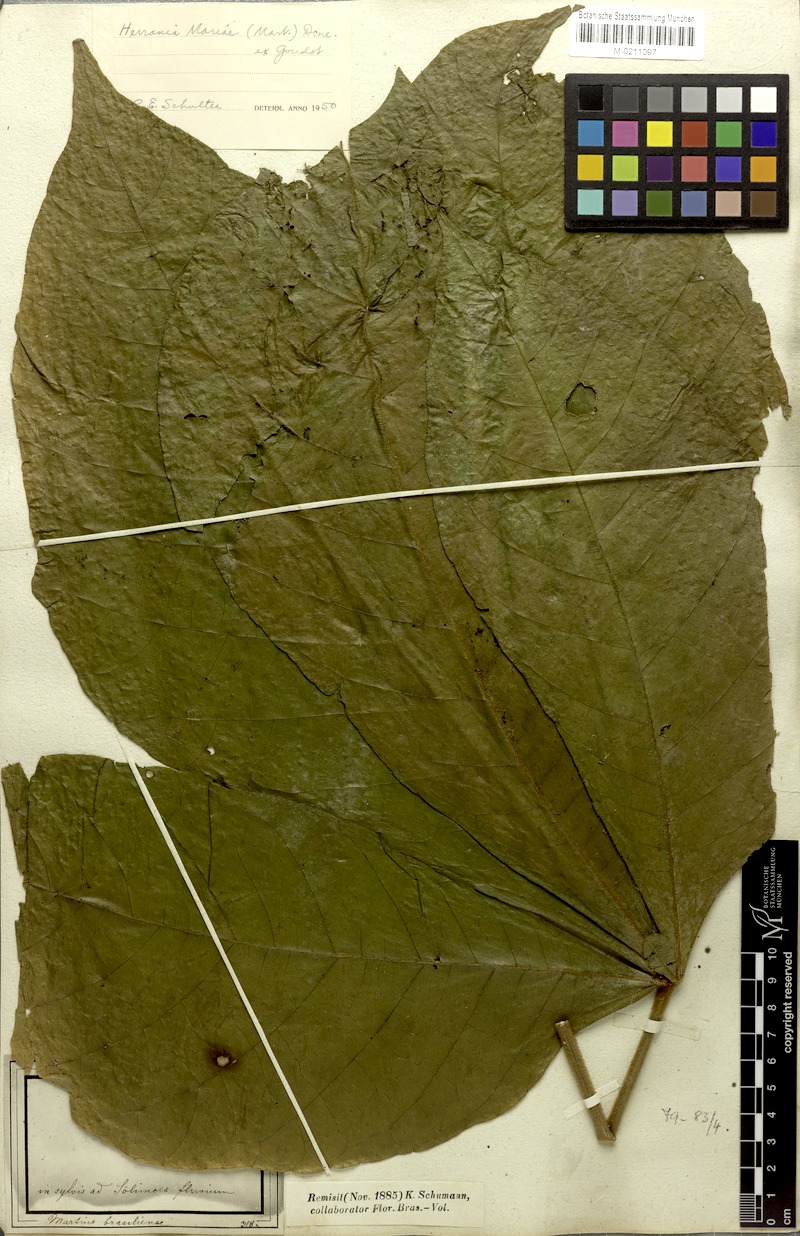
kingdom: Plantae
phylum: Tracheophyta
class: Magnoliopsida
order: Malvales
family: Malvaceae
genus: Abroma
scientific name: Abroma augustum
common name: Devil's-cotton
